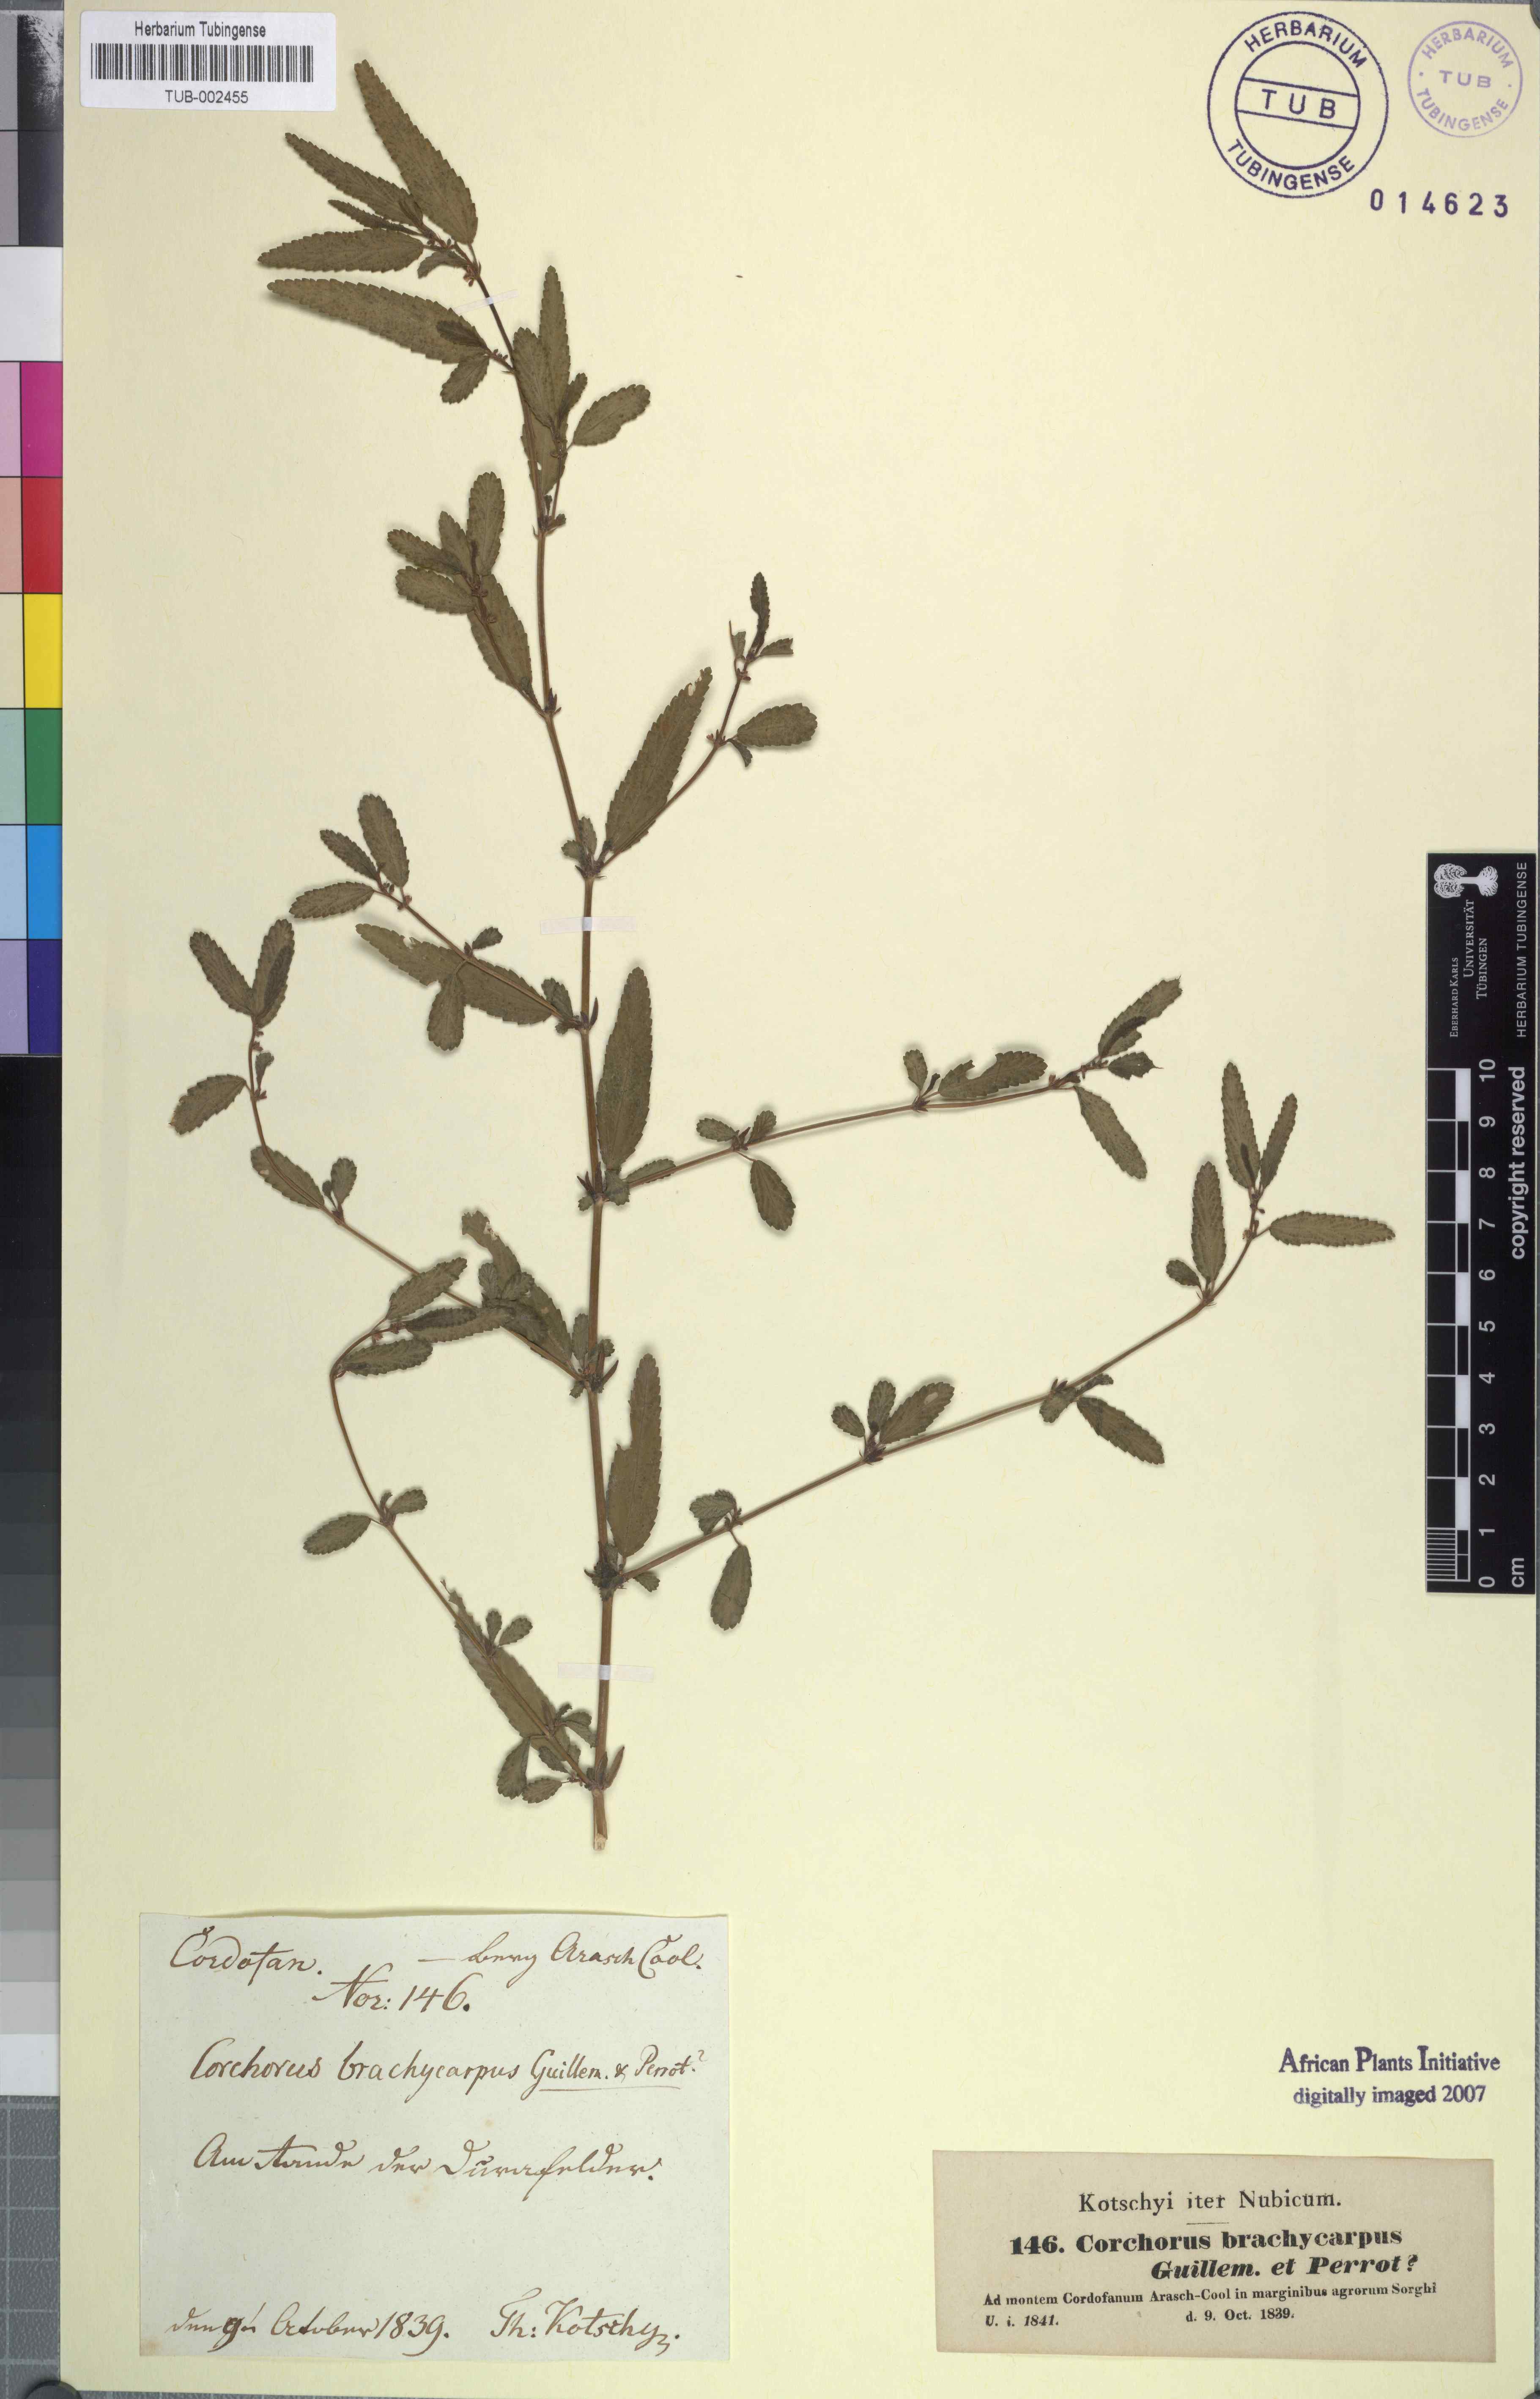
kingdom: Plantae
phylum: Tracheophyta
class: Magnoliopsida
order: Malvales
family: Malvaceae
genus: Corchorus
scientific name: Corchorus fascicularis
